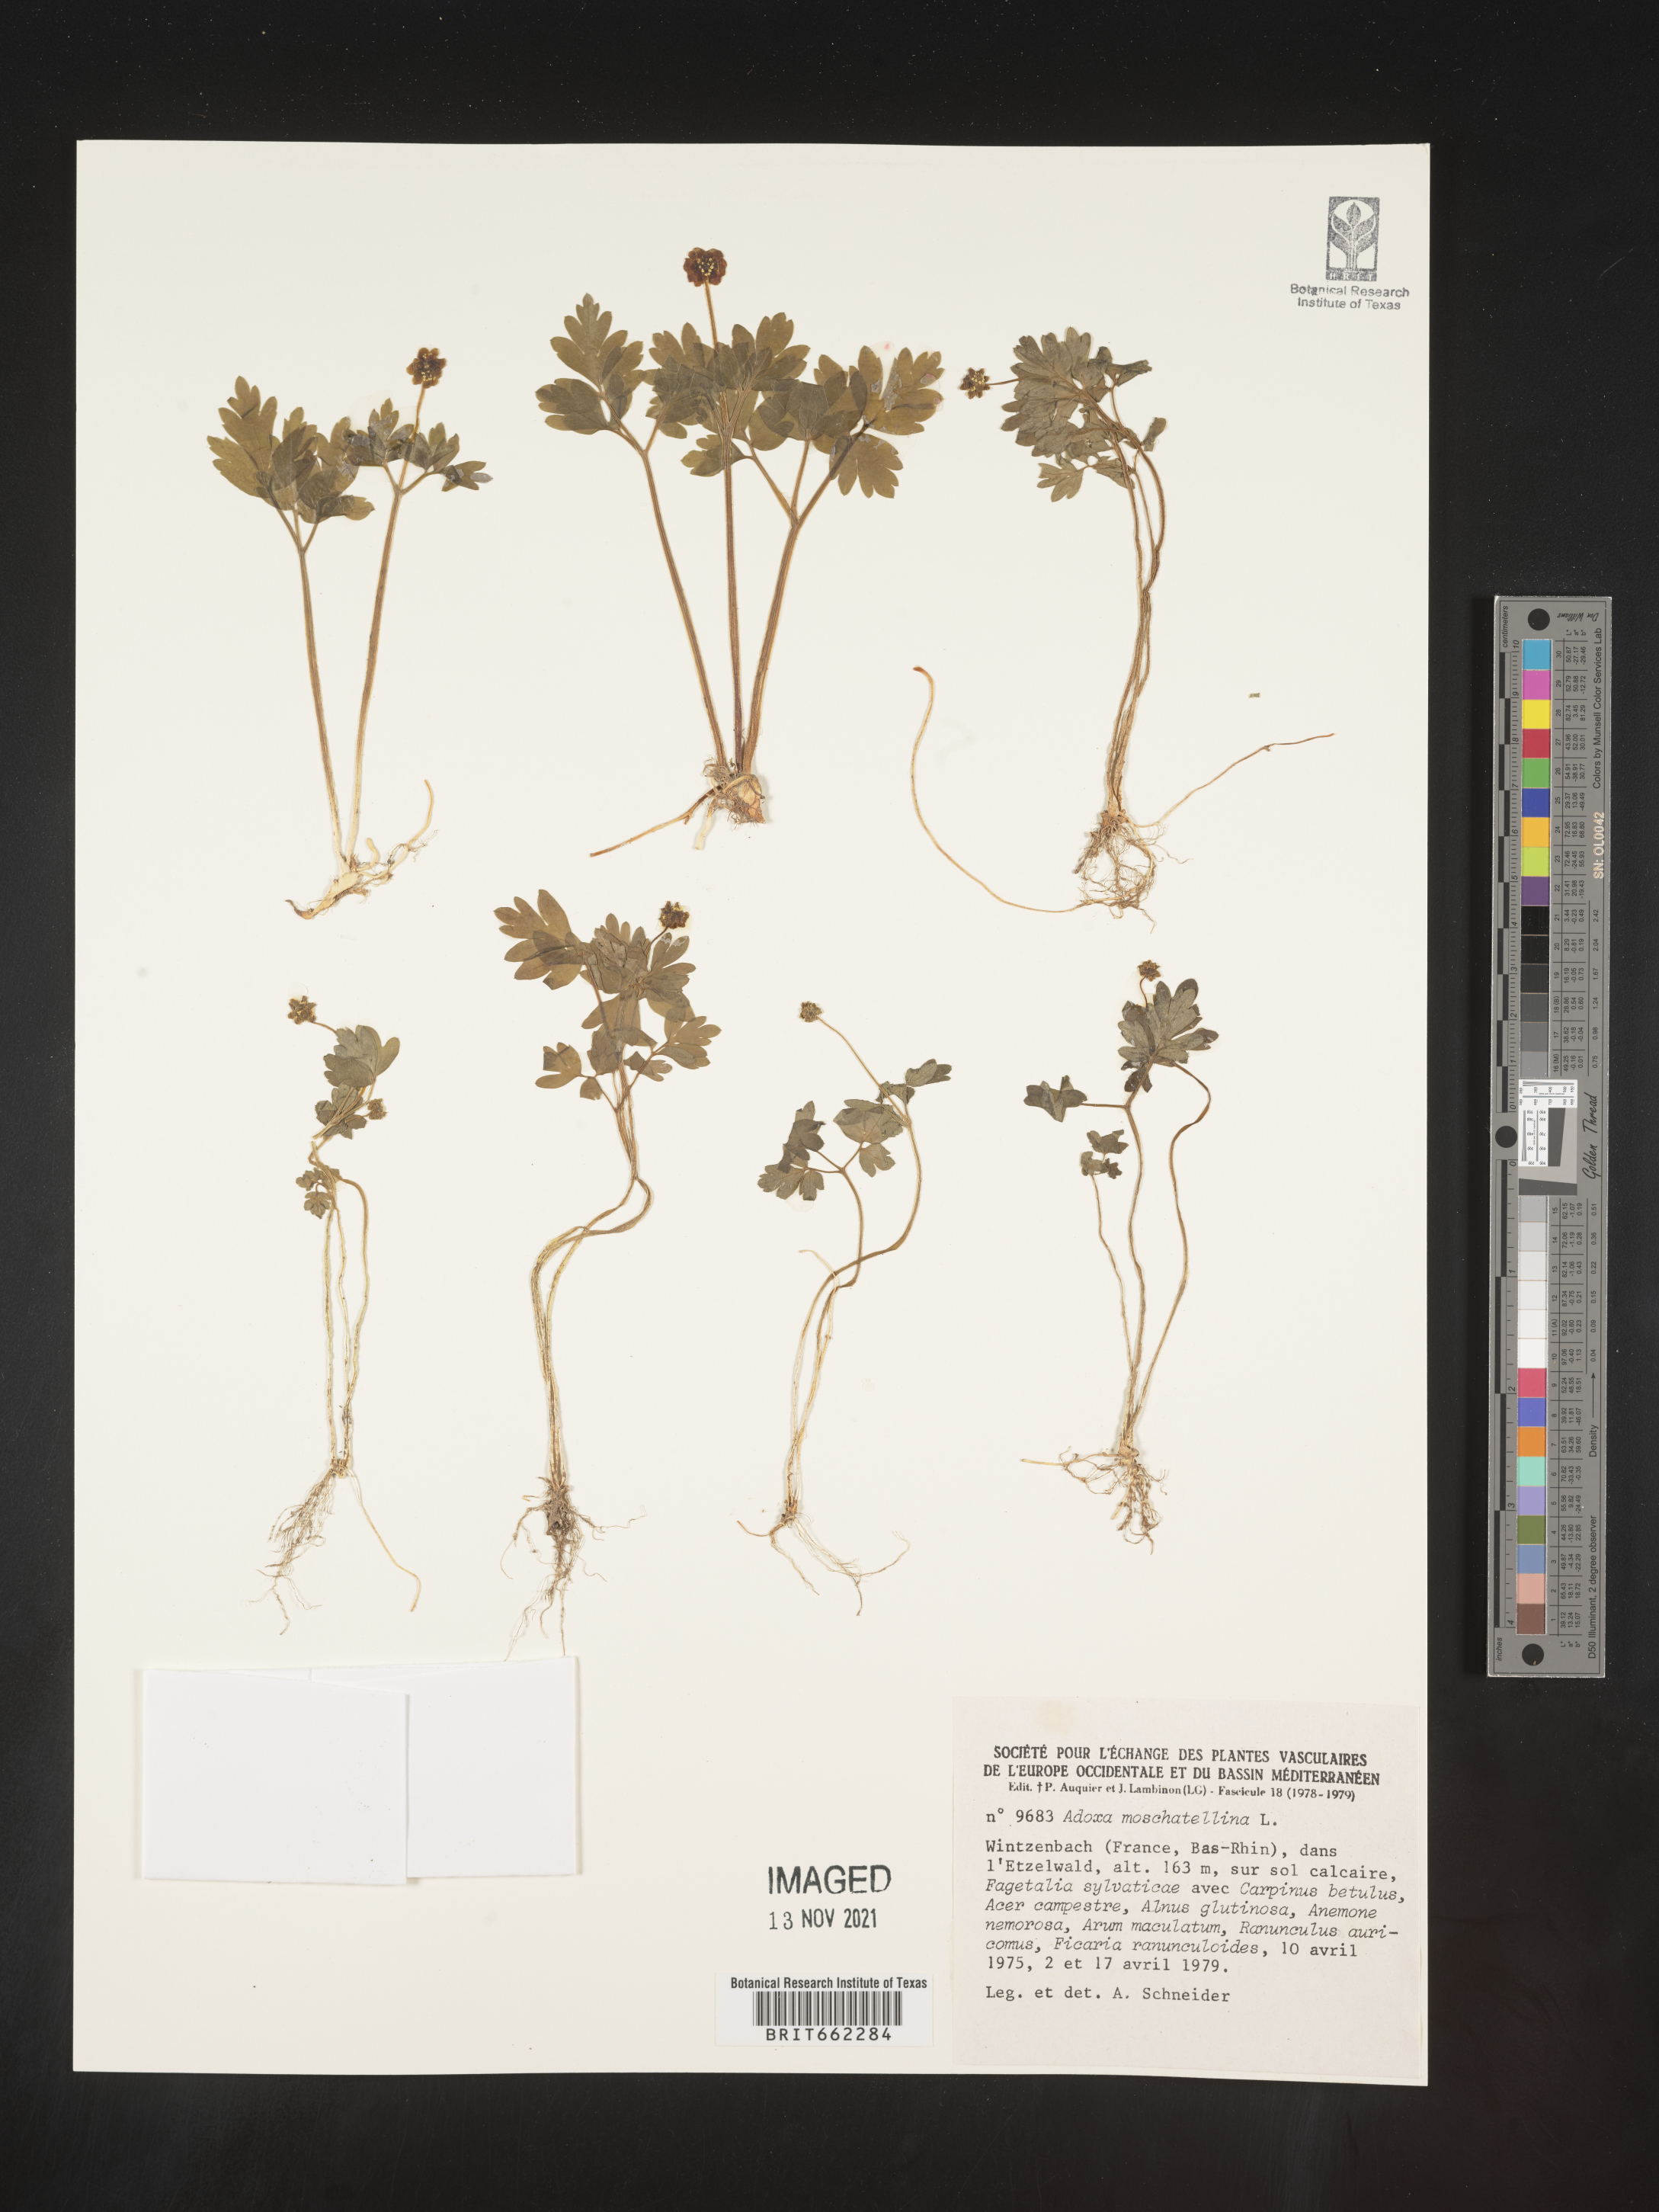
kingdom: Plantae
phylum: Tracheophyta
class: Magnoliopsida
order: Dipsacales
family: Viburnaceae
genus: Adoxa
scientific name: Adoxa
